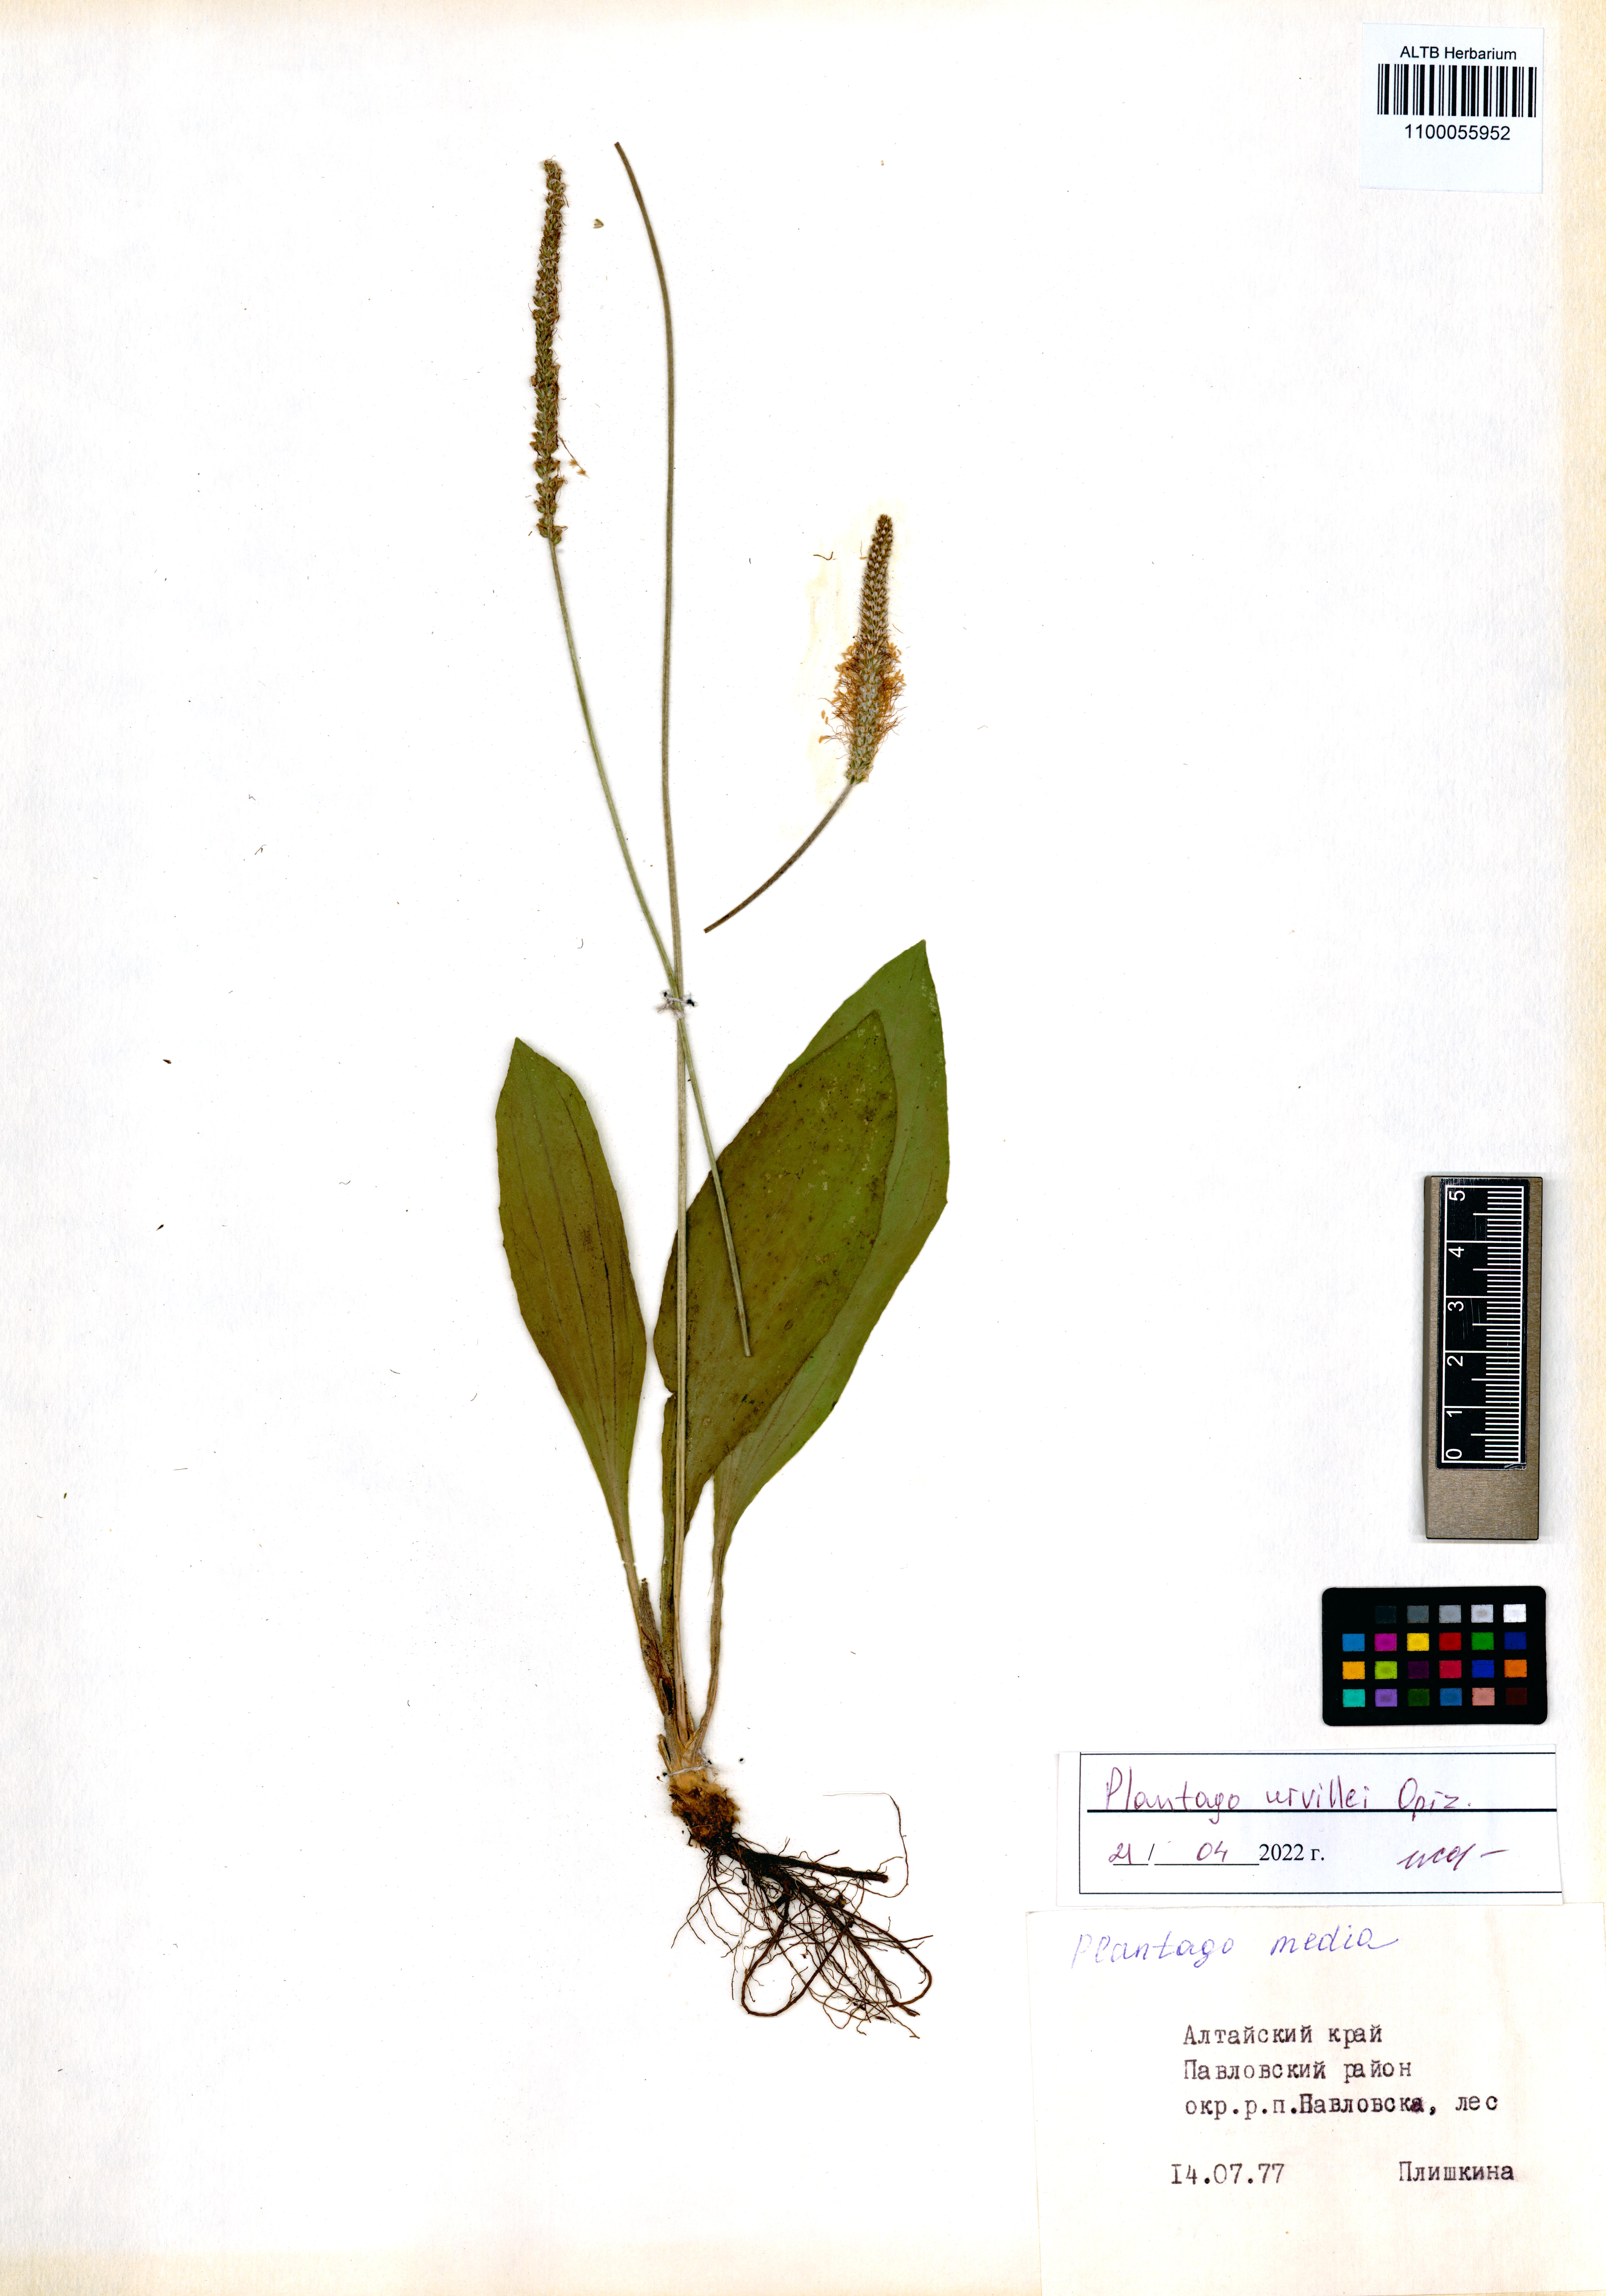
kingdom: Plantae
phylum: Tracheophyta
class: Magnoliopsida
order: Lamiales
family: Plantaginaceae
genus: Plantago
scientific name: Plantago urvillei
